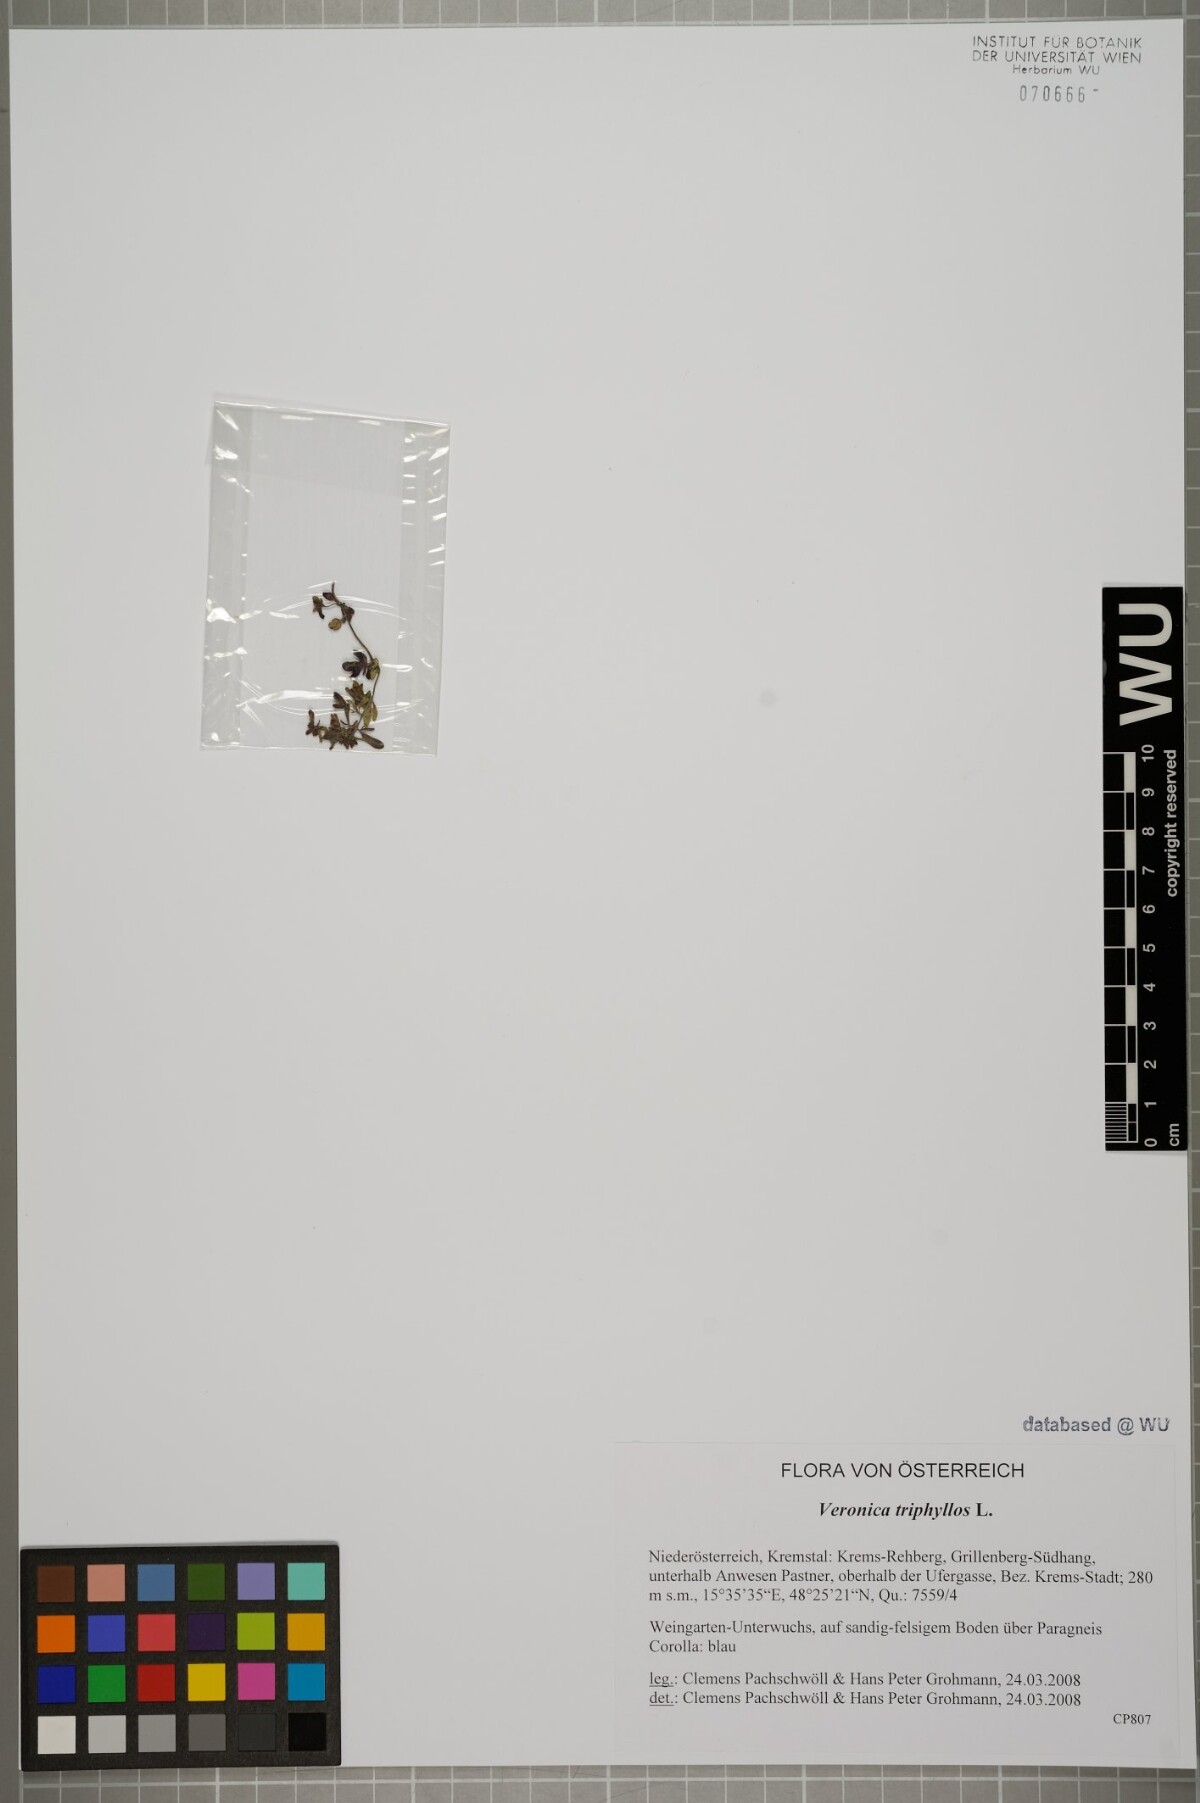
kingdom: Plantae
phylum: Tracheophyta
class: Magnoliopsida
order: Lamiales
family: Plantaginaceae
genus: Veronica
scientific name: Veronica triphyllos
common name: Fingered speedwell
